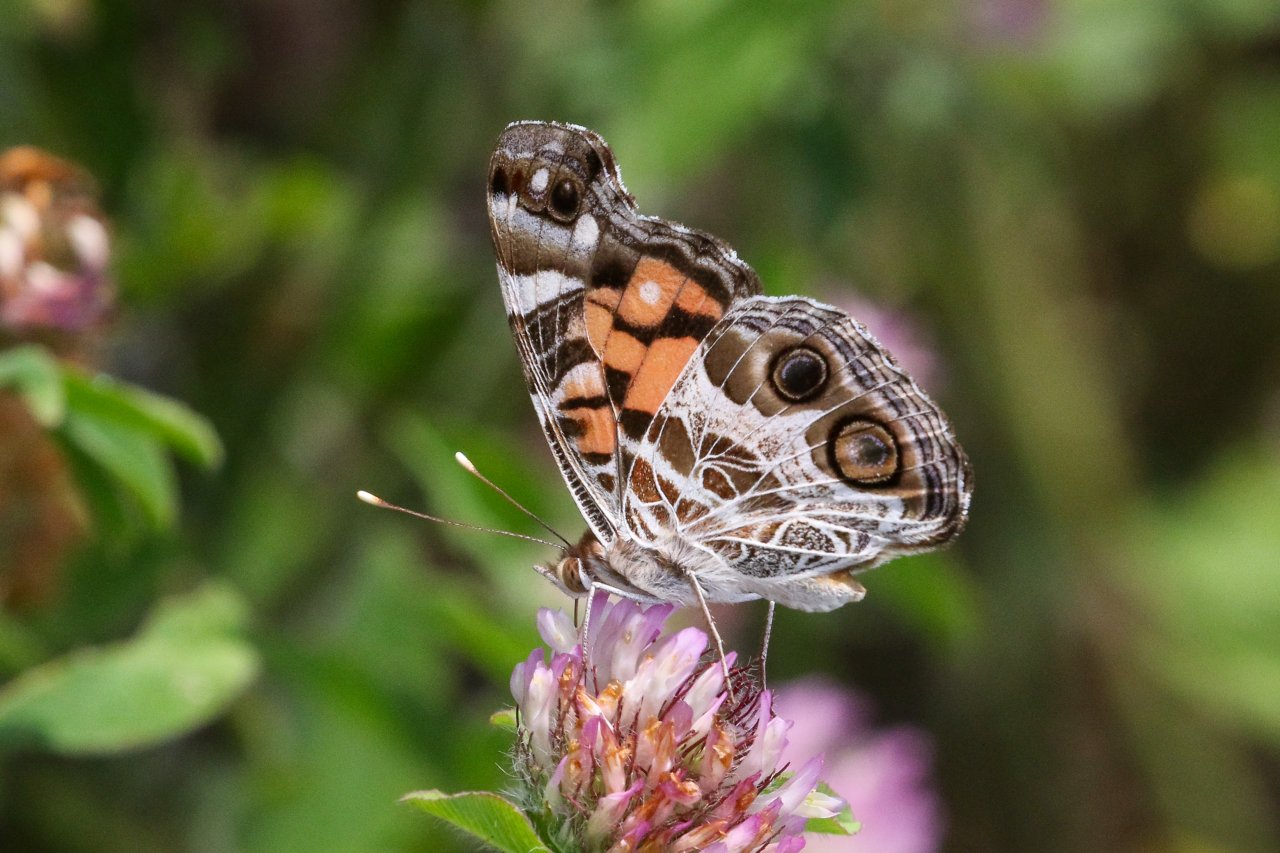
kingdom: Animalia
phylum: Arthropoda
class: Insecta
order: Lepidoptera
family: Nymphalidae
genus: Vanessa
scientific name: Vanessa virginiensis
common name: American Lady
